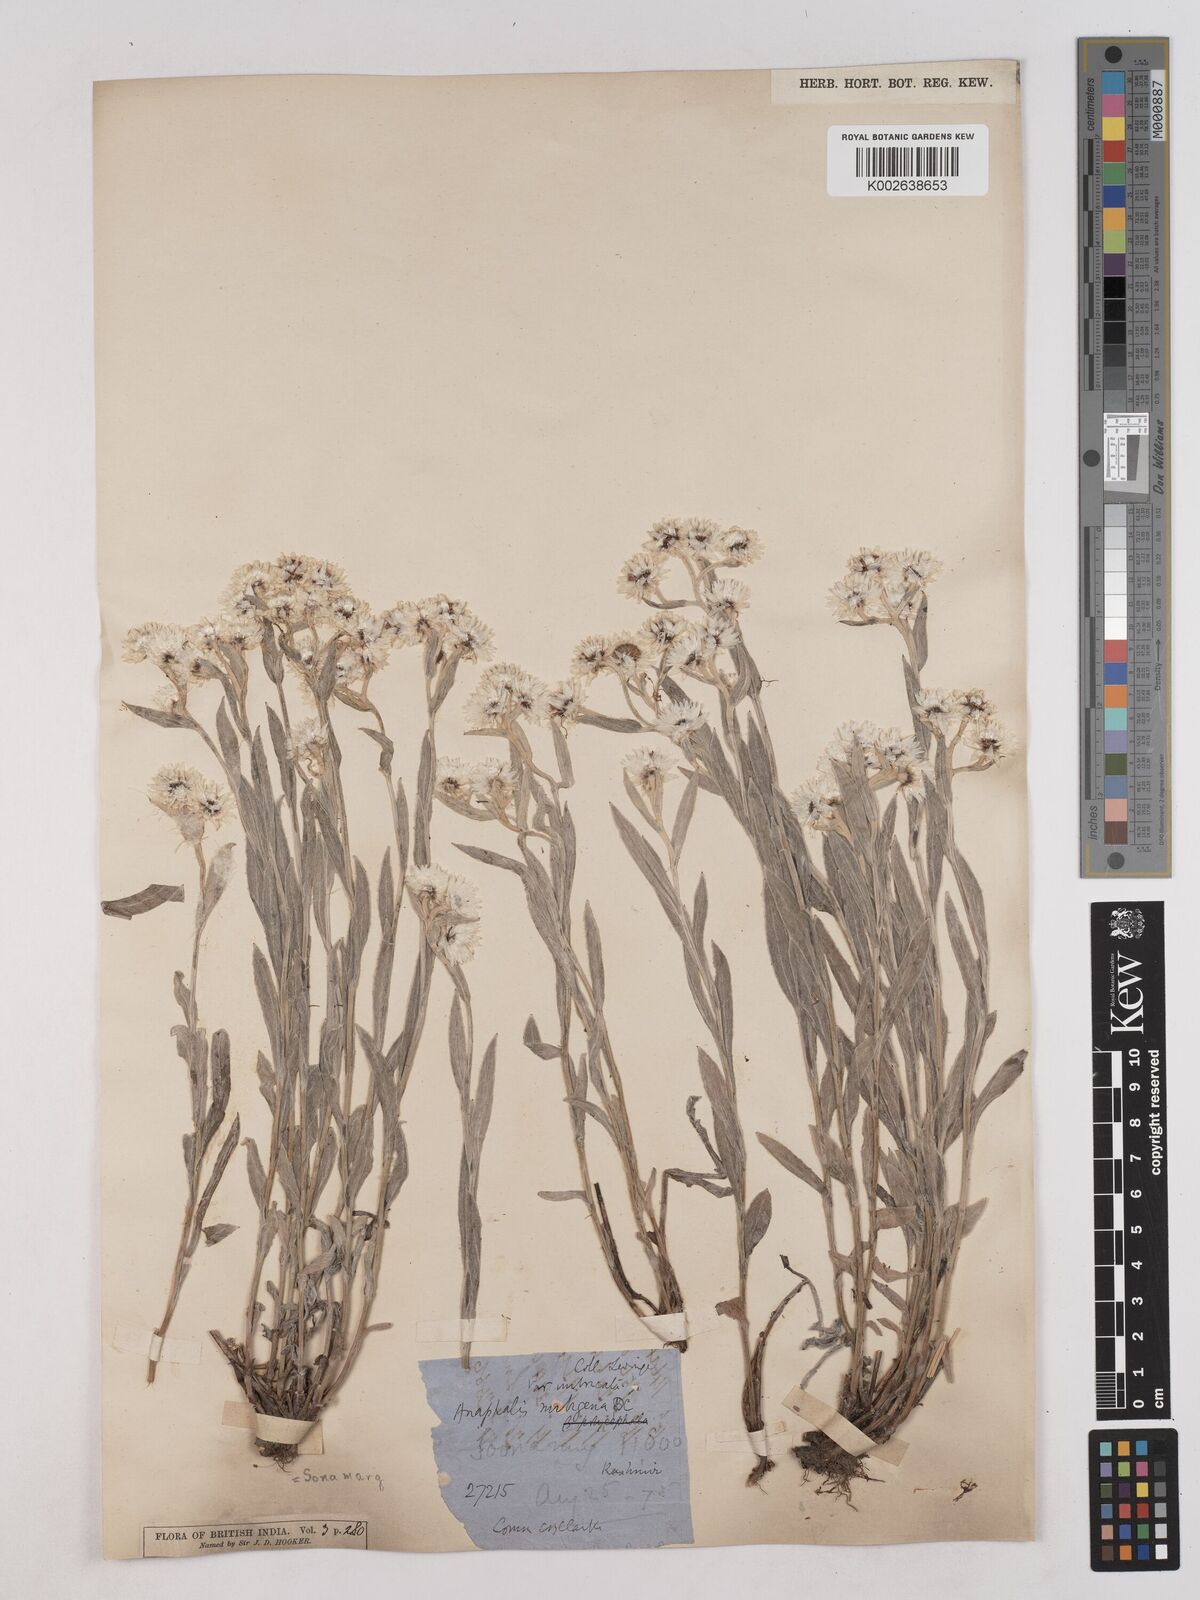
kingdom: Plantae
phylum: Tracheophyta
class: Magnoliopsida
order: Asterales
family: Asteraceae
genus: Anaphalis
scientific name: Anaphalis
